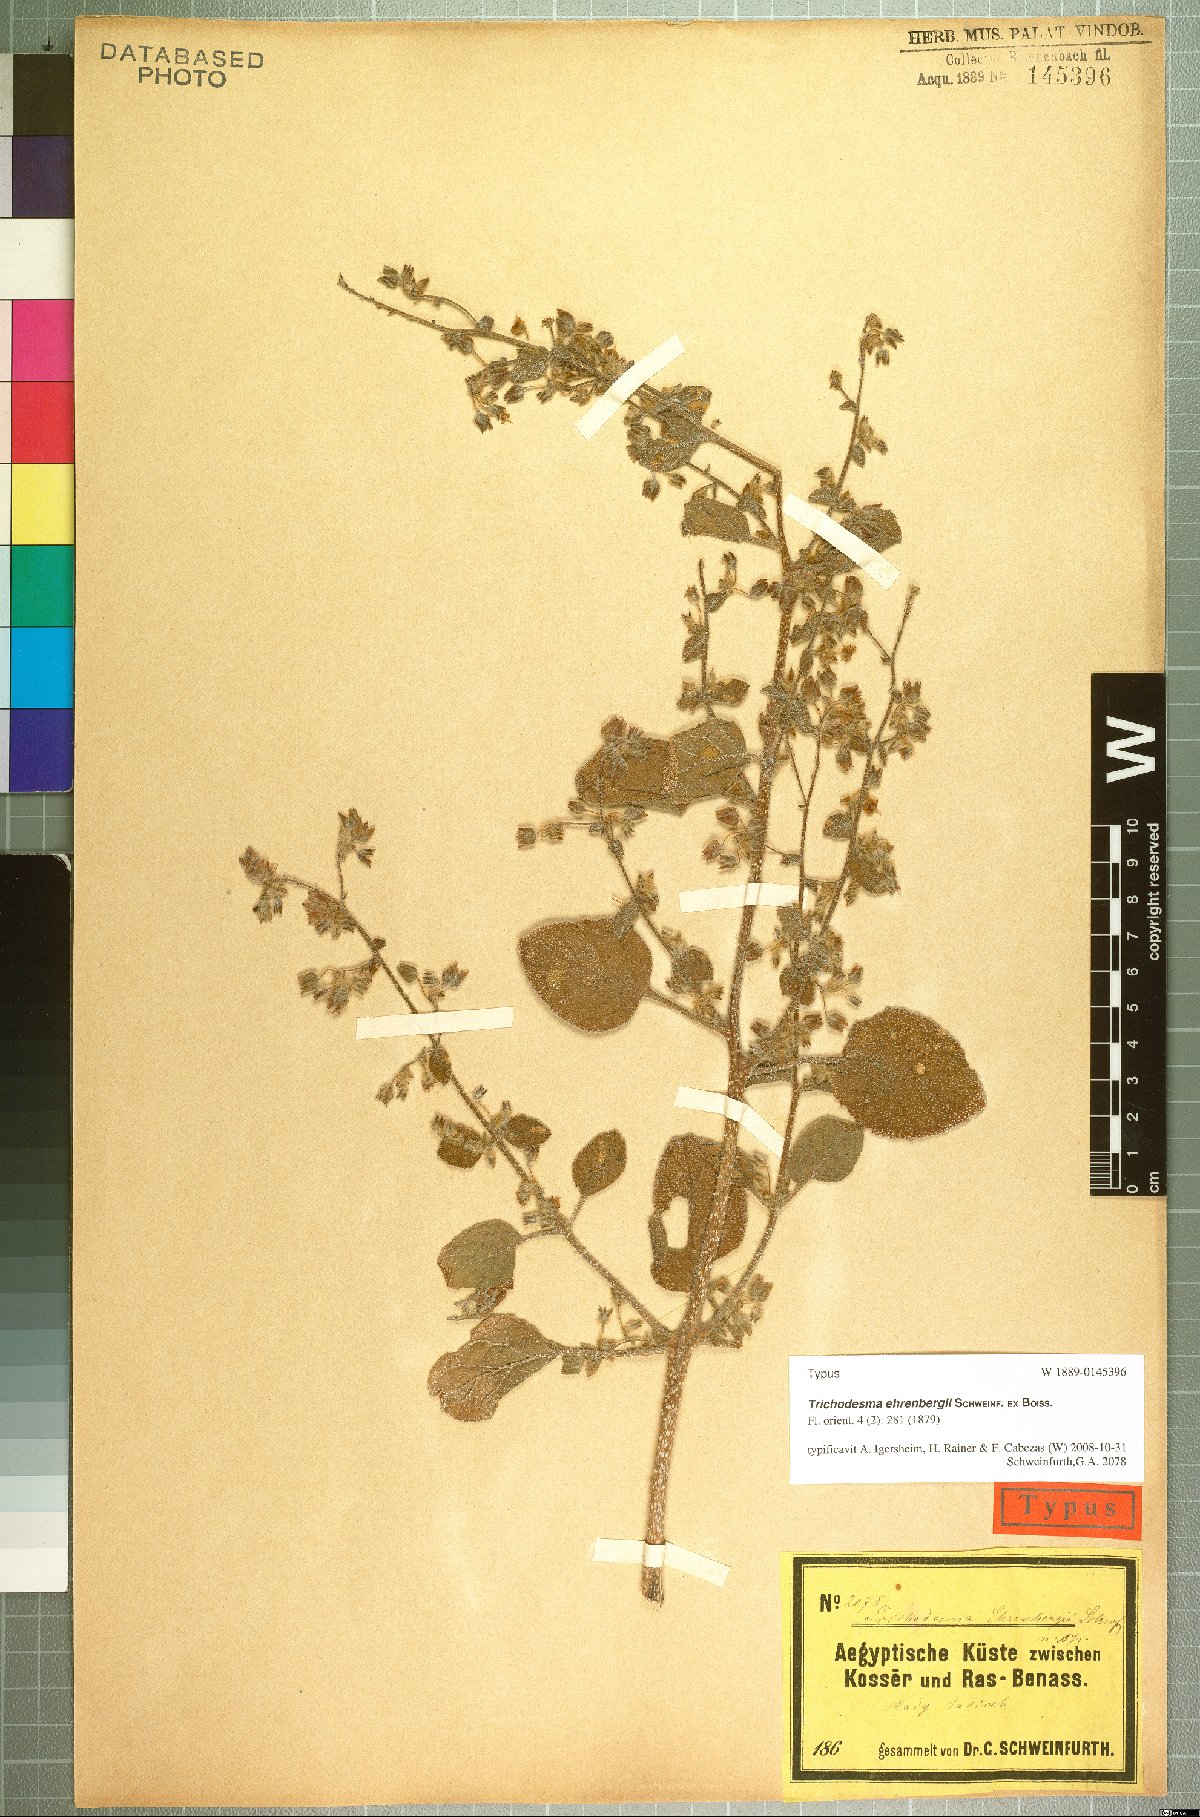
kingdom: Plantae
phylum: Tracheophyta
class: Magnoliopsida
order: Boraginales
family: Boraginaceae
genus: Trichodesma
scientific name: Trichodesma ehrenbergii
